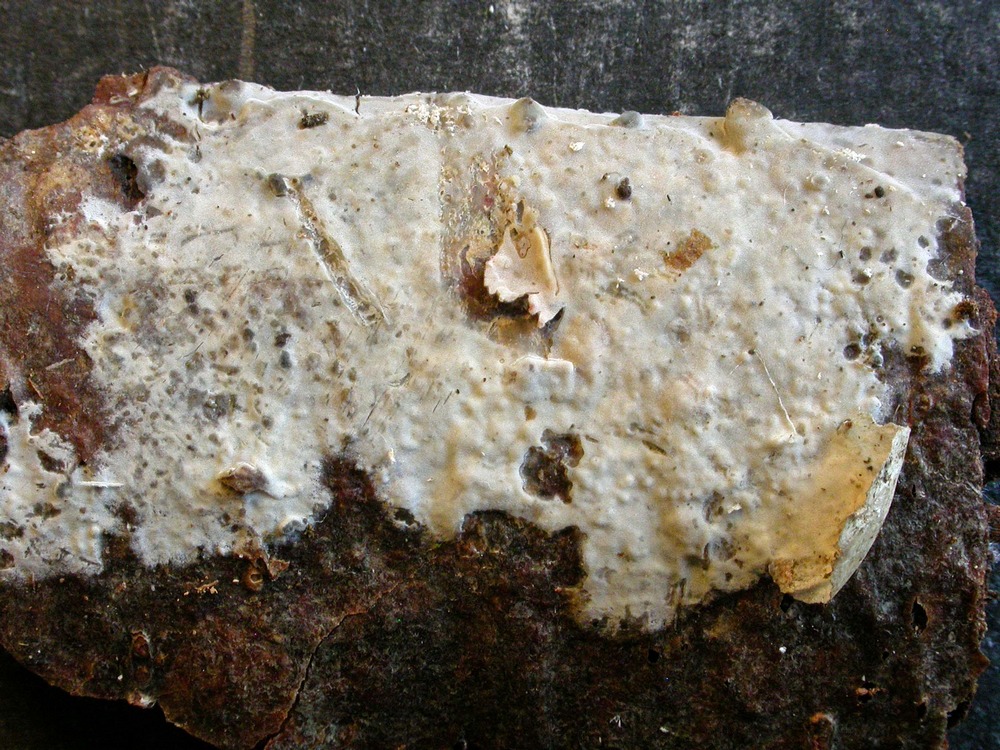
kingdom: Fungi
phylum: Basidiomycota
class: Agaricomycetes
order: Agaricales
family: Radulomycetaceae
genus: Radulomyces
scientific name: Radulomyces confluens
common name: glat naftalinskind
